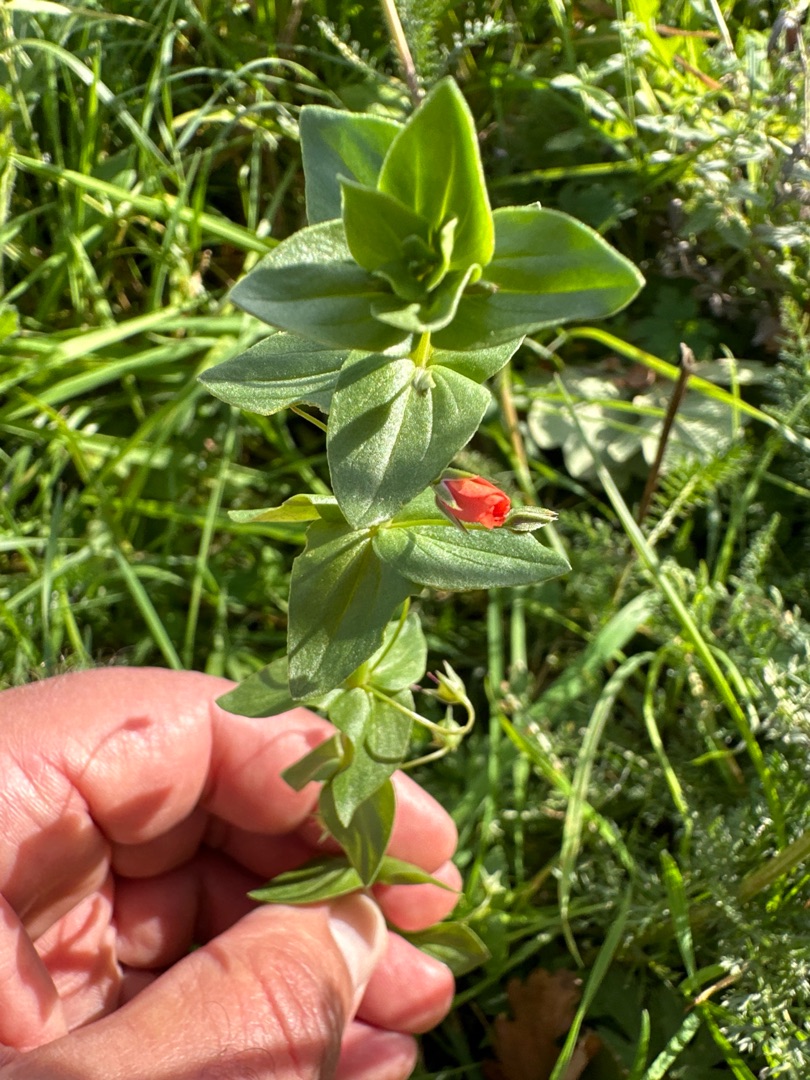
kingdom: Plantae
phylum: Tracheophyta
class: Magnoliopsida
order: Ericales
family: Primulaceae
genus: Lysimachia
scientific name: Lysimachia arvensis
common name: Rød arve
